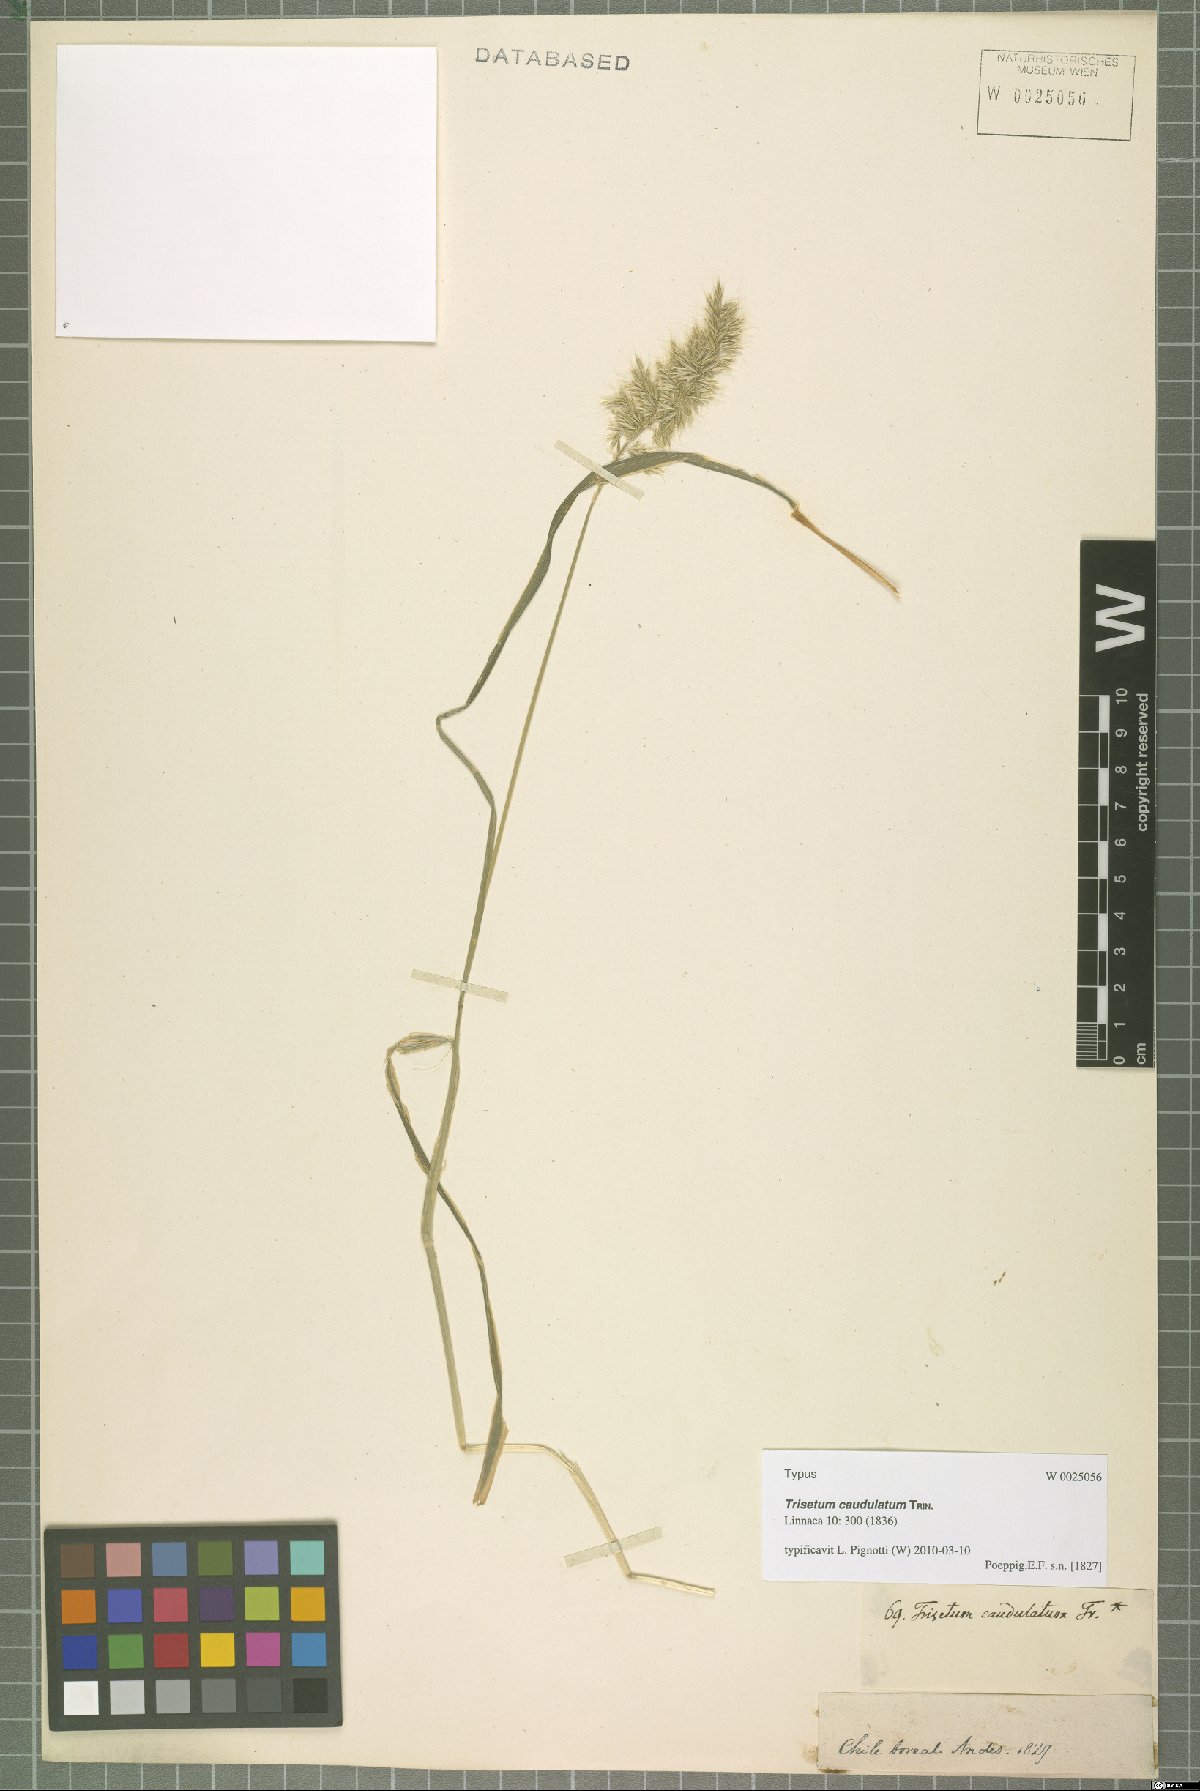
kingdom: Plantae
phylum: Tracheophyta
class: Liliopsida
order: Poales
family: Poaceae
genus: Trisetum
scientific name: Trisetum caudulatum
